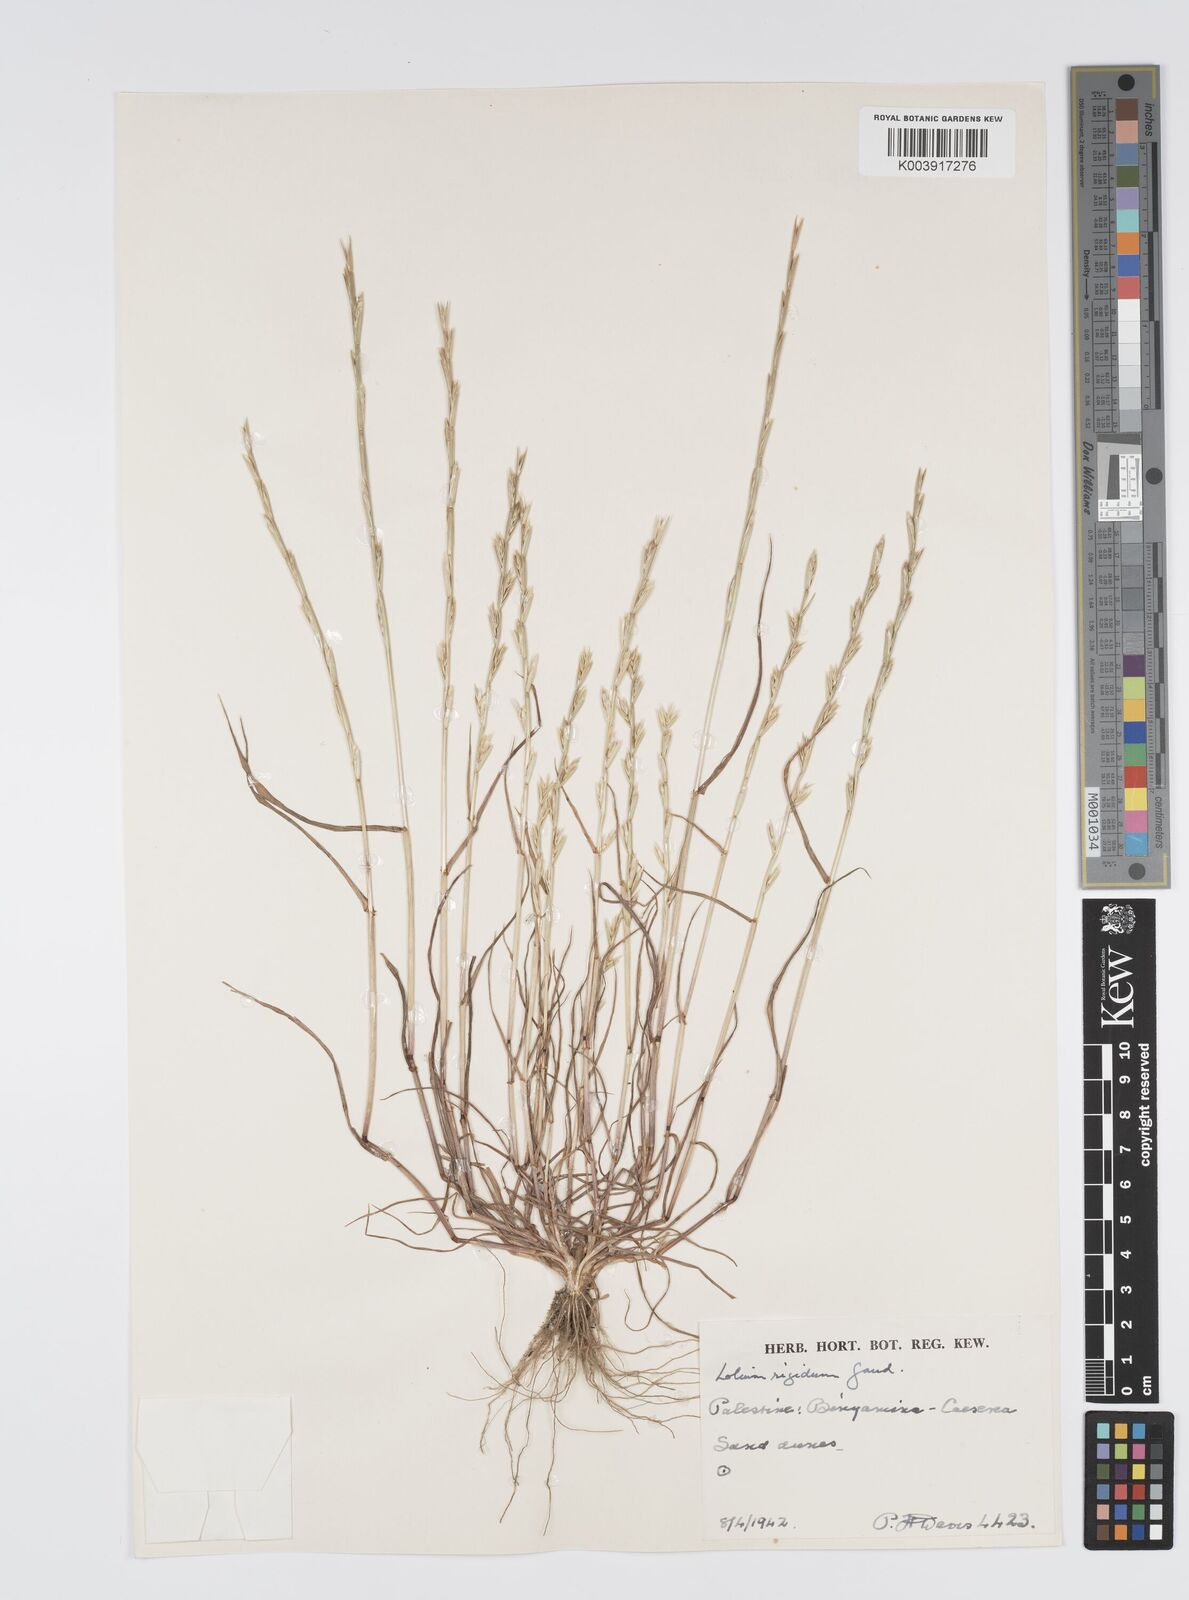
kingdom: Plantae
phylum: Tracheophyta
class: Liliopsida
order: Poales
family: Poaceae
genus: Lolium
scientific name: Lolium rigidum
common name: Wimmera ryegrass
